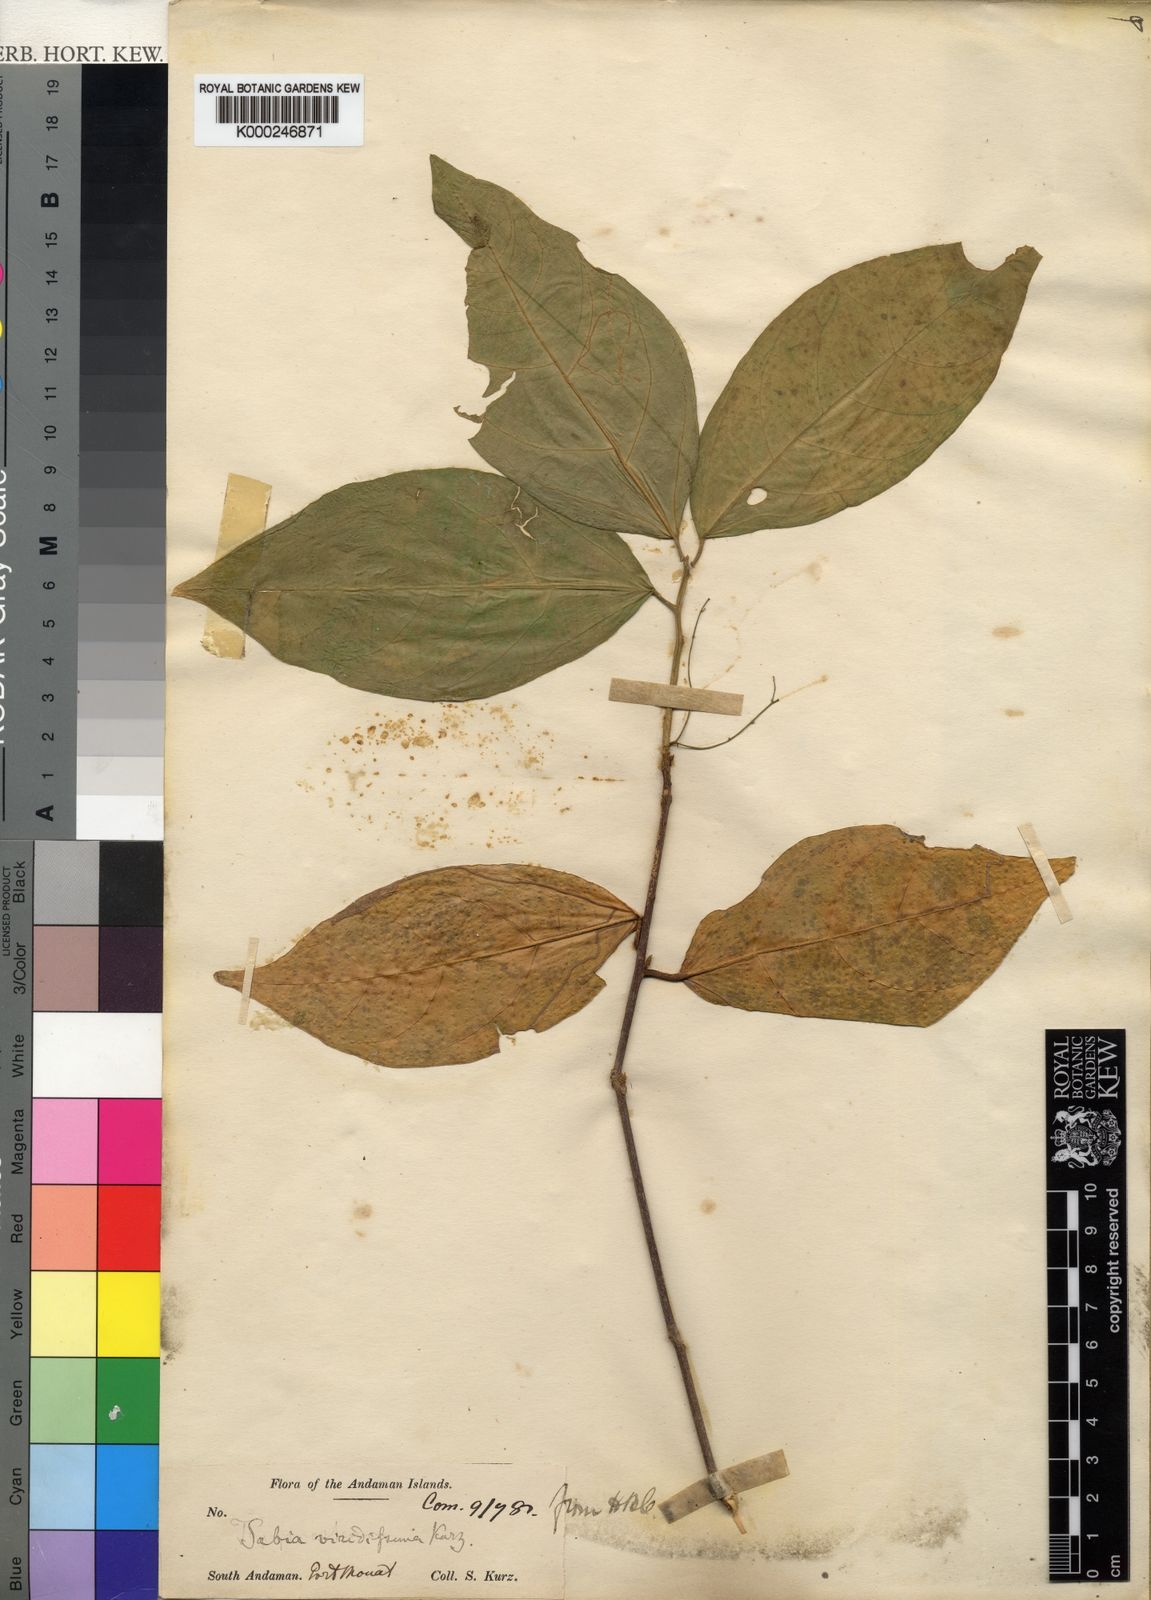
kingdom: Plantae
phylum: Tracheophyta
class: Magnoliopsida
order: Malpighiales
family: Euphorbiaceae
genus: Trigonostemon
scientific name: Trigonostemon viridissimus
